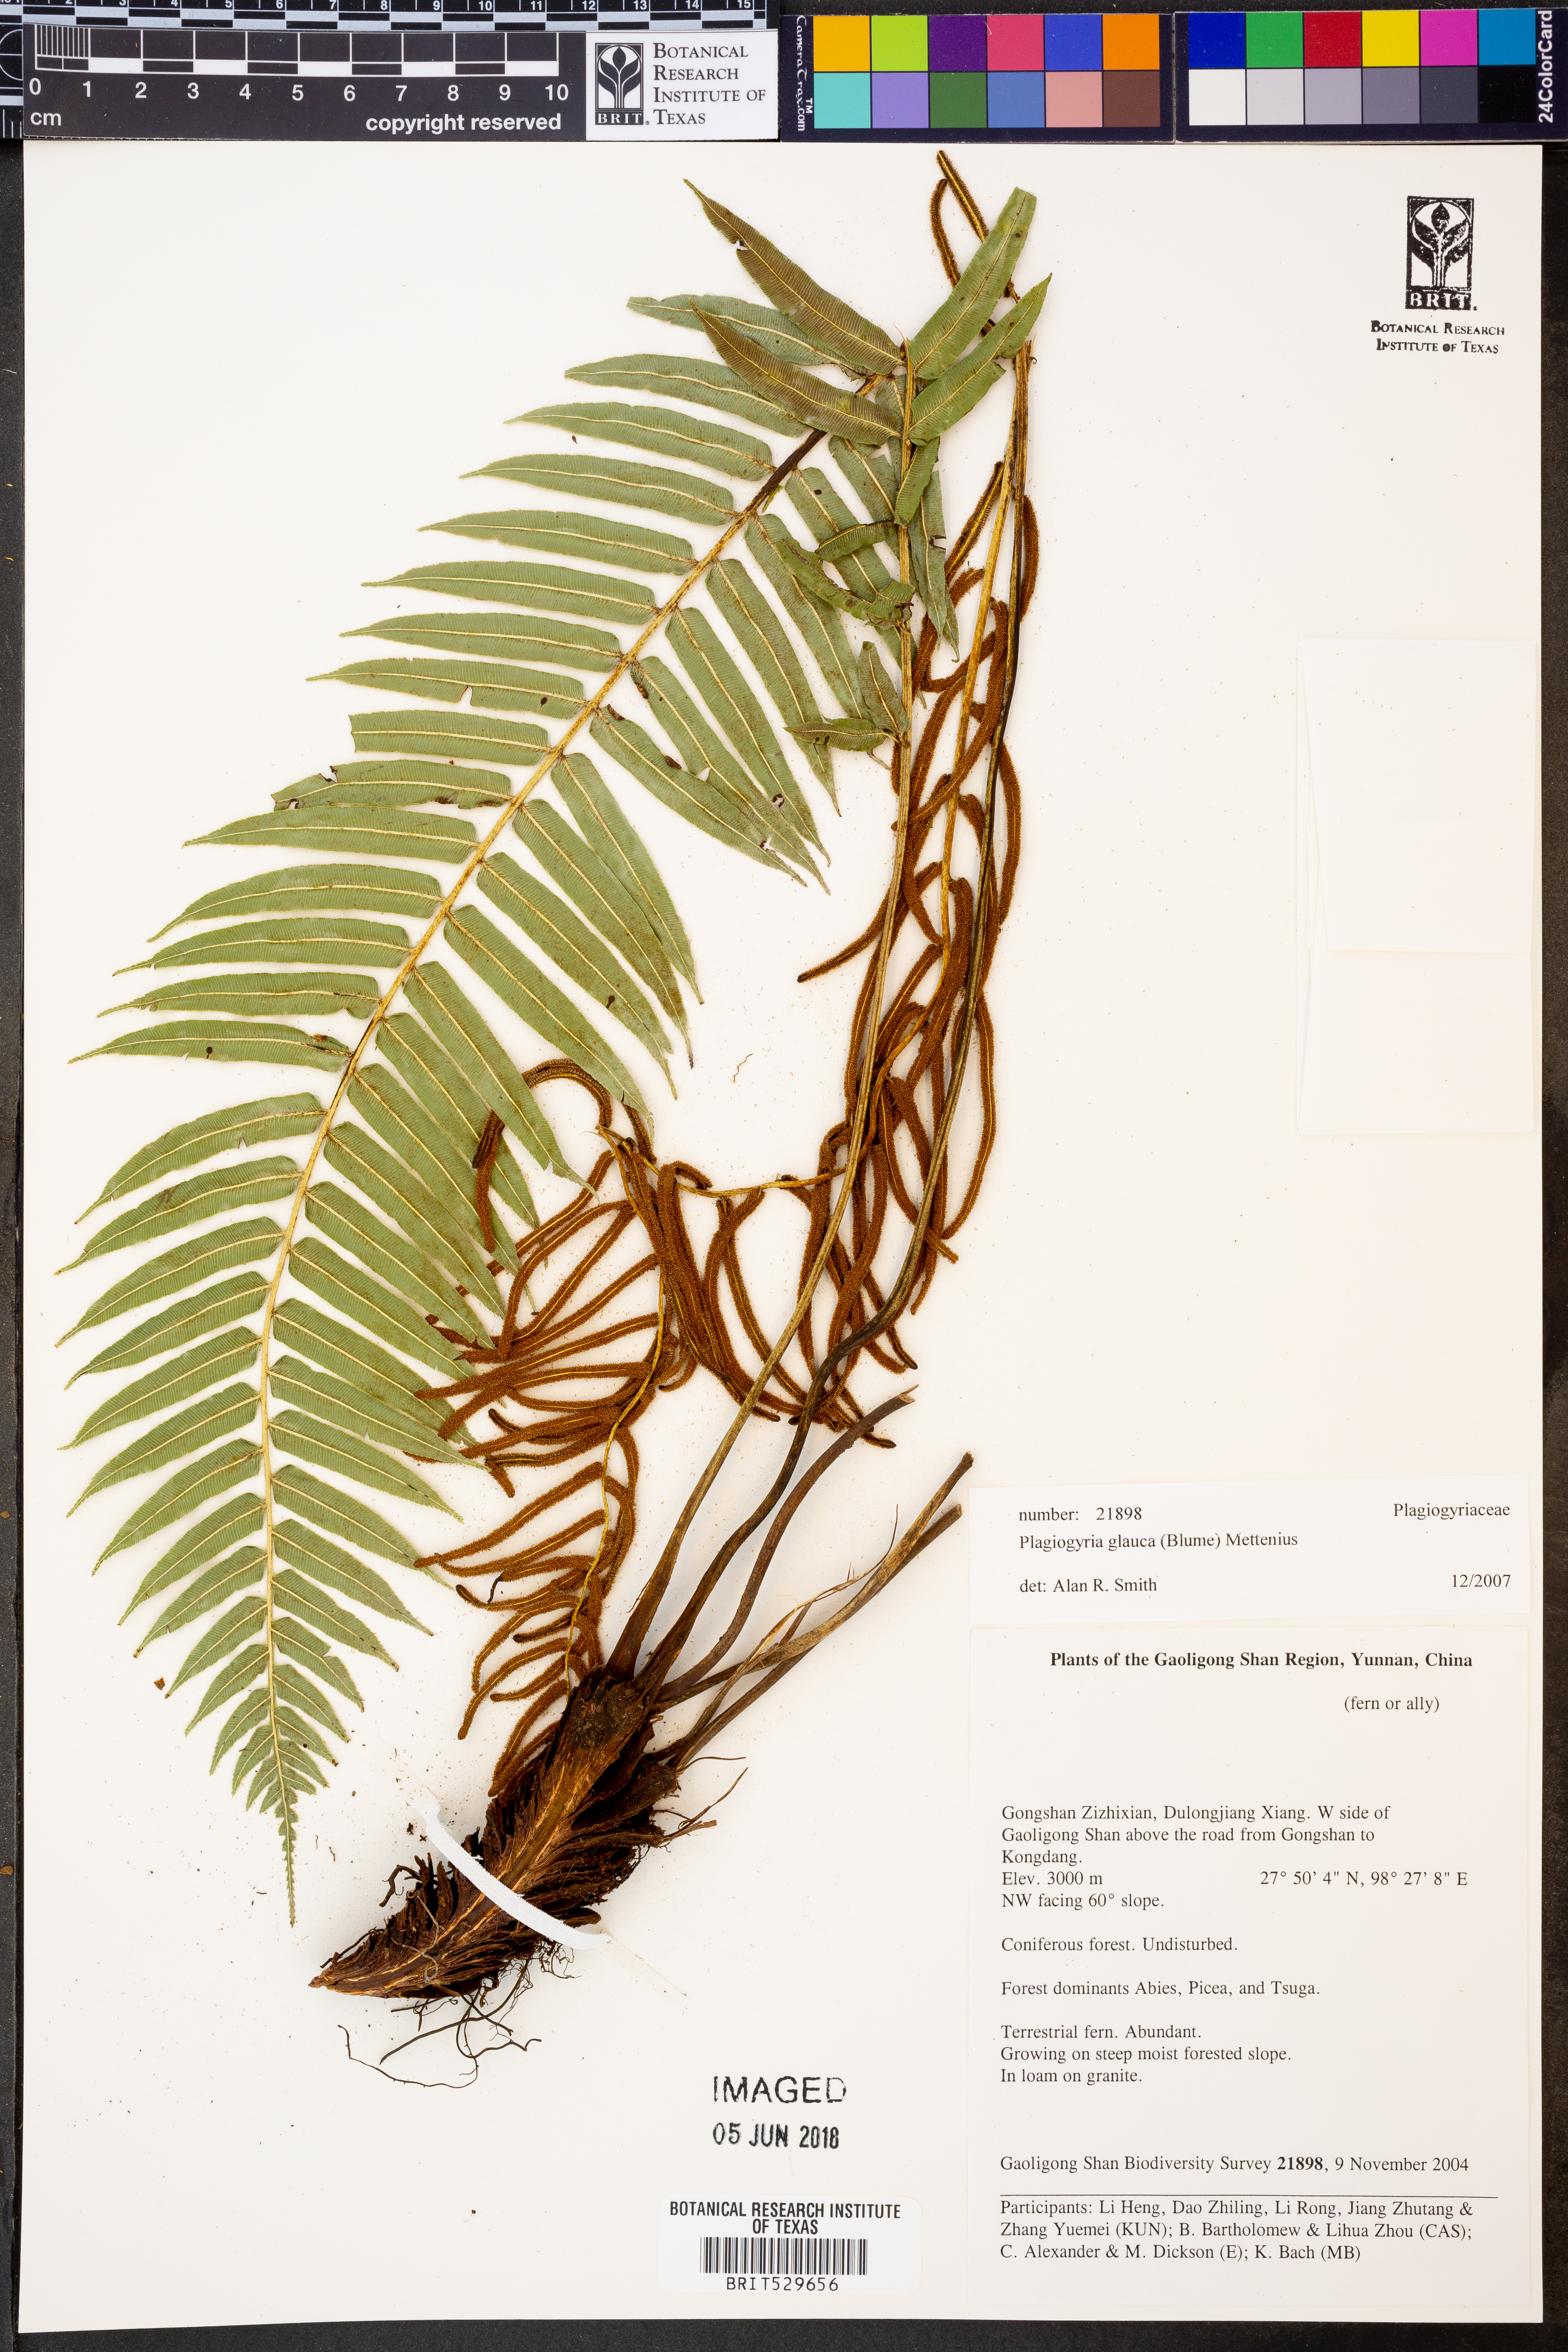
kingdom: Plantae
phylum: Tracheophyta
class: Polypodiopsida
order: Cyatheales
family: Plagiogyriaceae
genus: Plagiogyria
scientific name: Plagiogyria glauca
